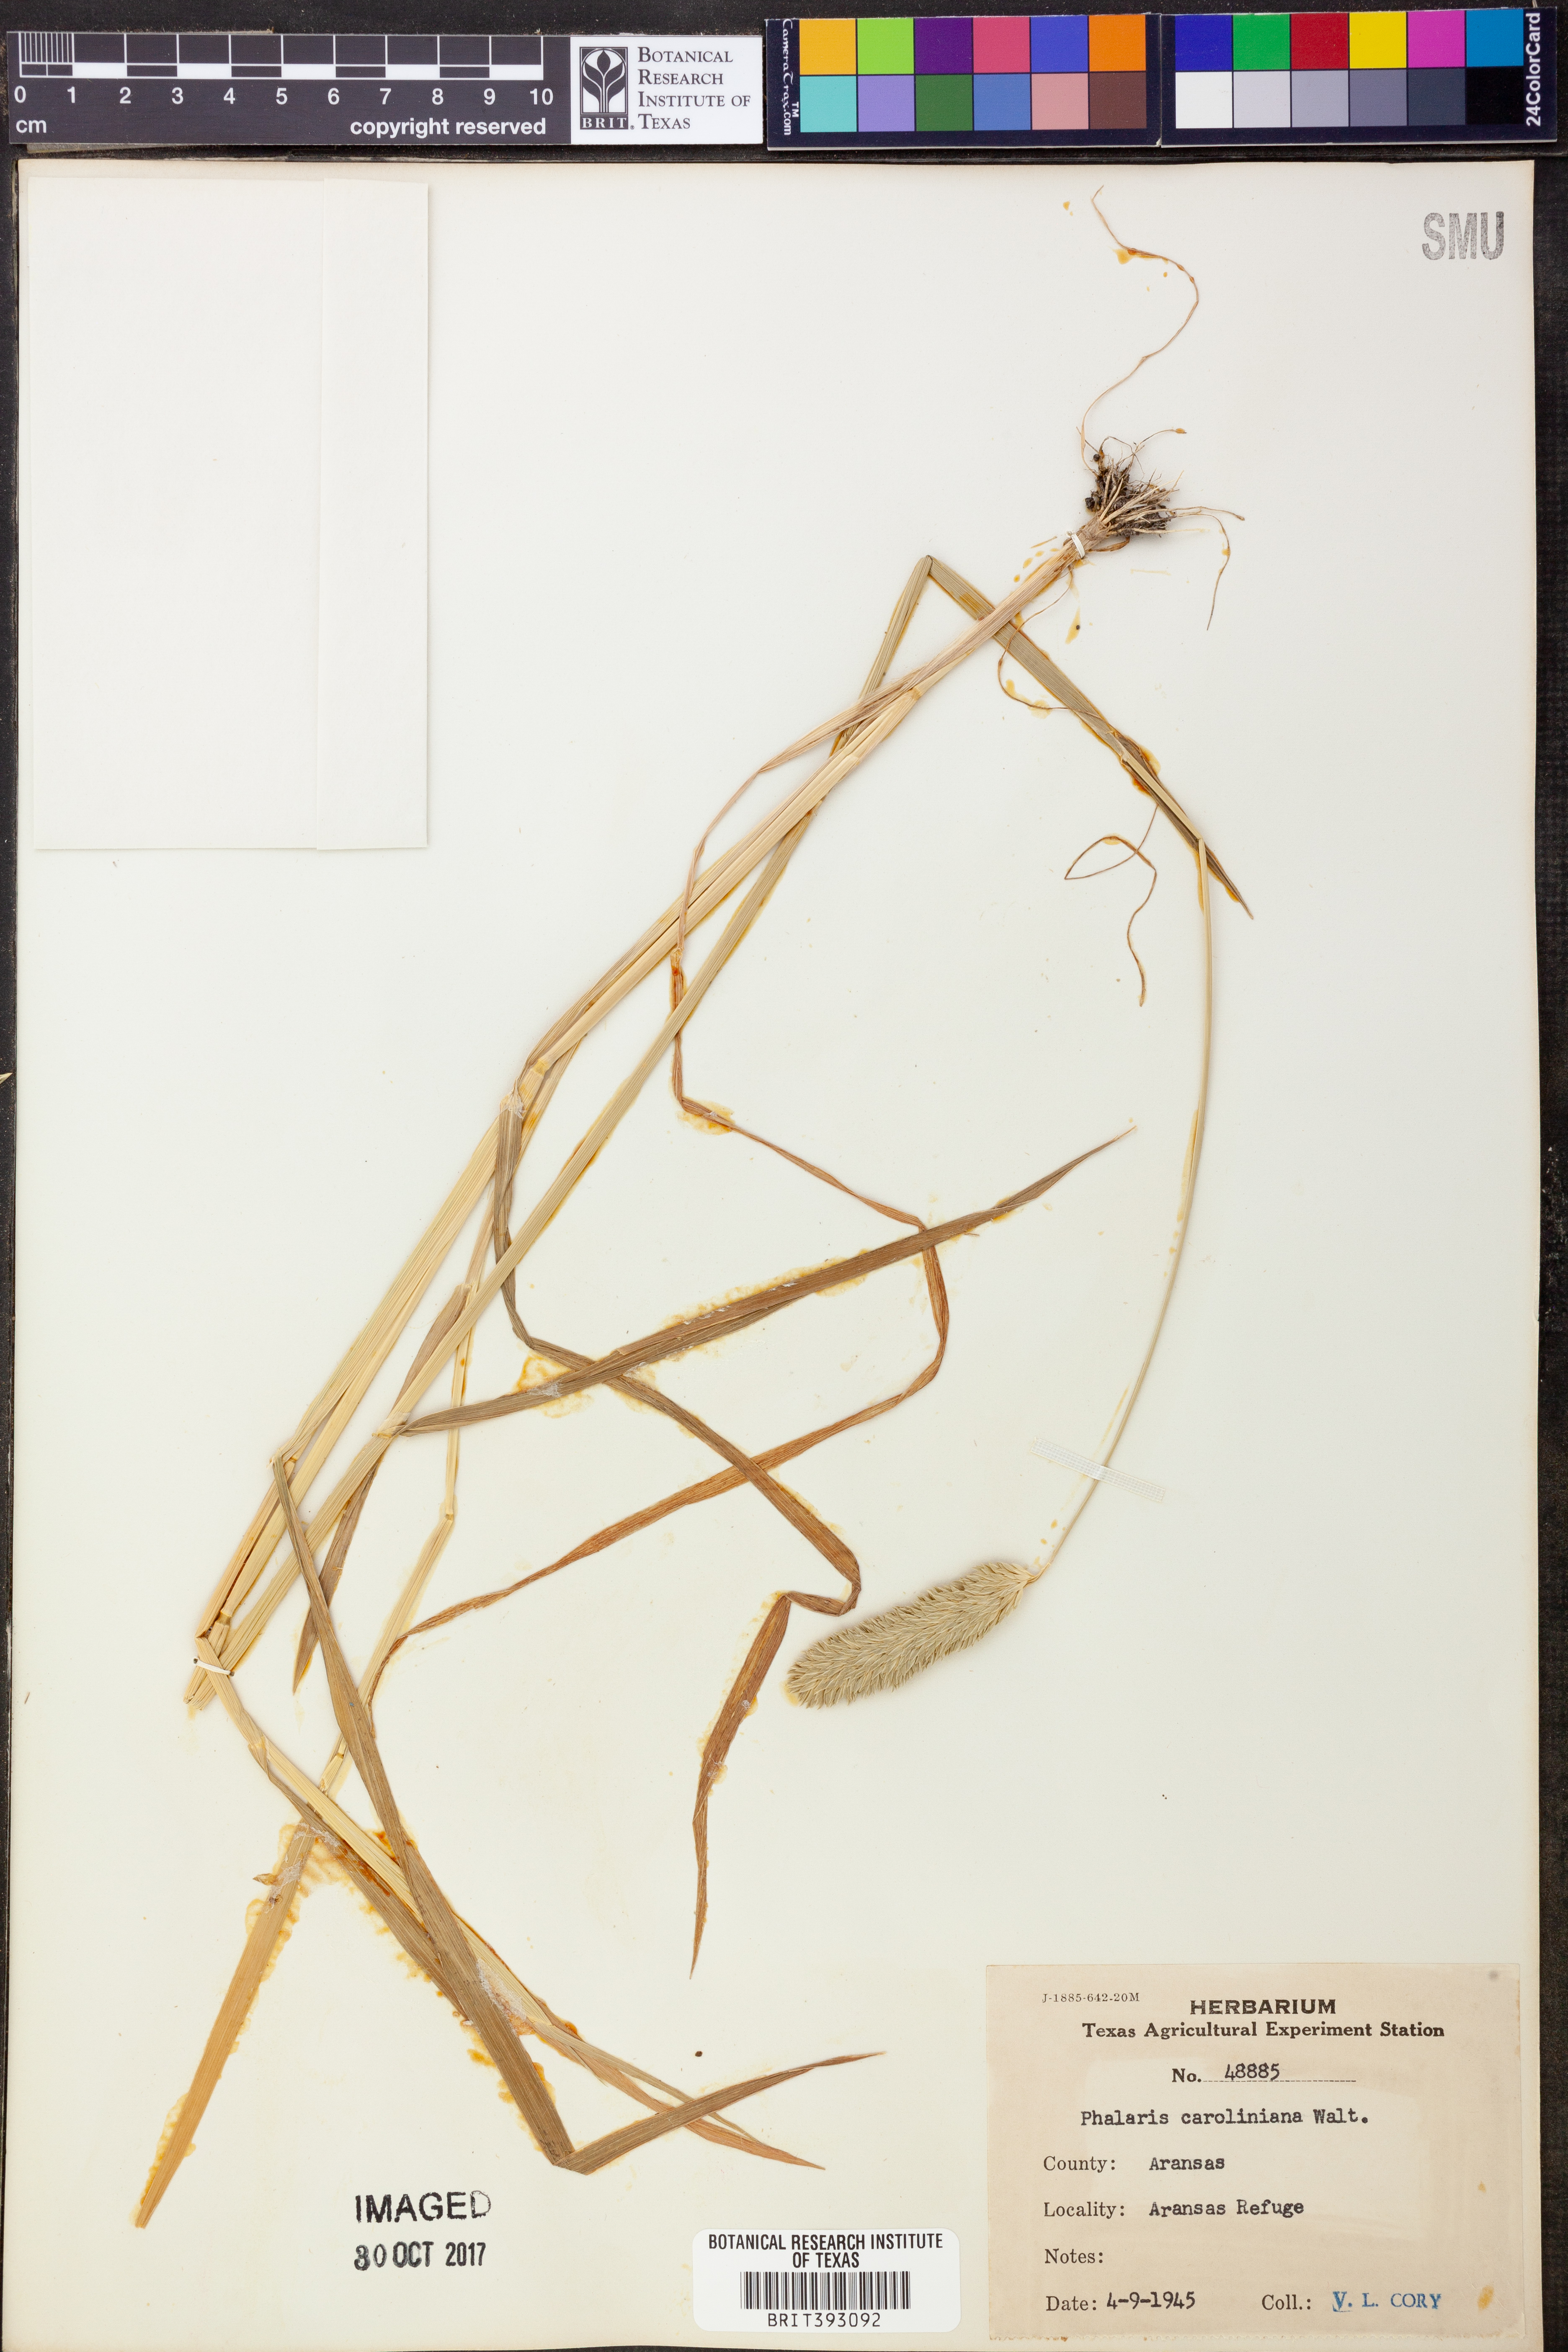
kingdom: Plantae
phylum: Tracheophyta
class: Liliopsida
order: Poales
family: Poaceae
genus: Phalaris
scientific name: Phalaris caroliniana
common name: May grass
